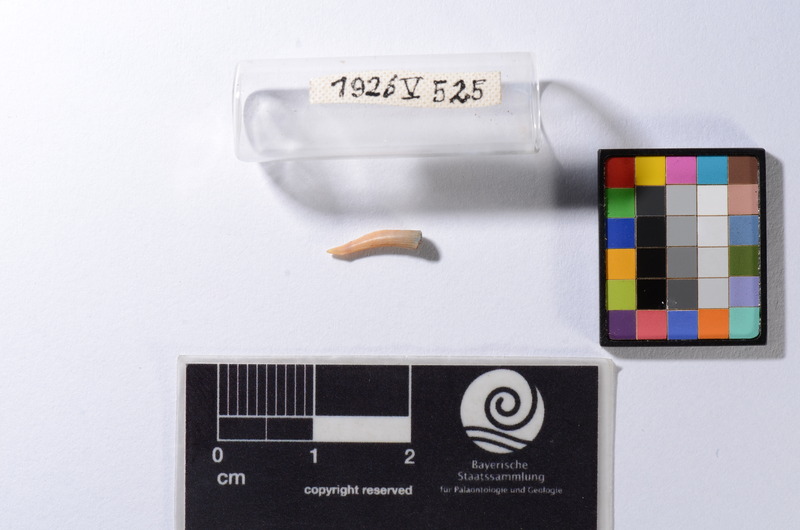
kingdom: Animalia
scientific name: Animalia
